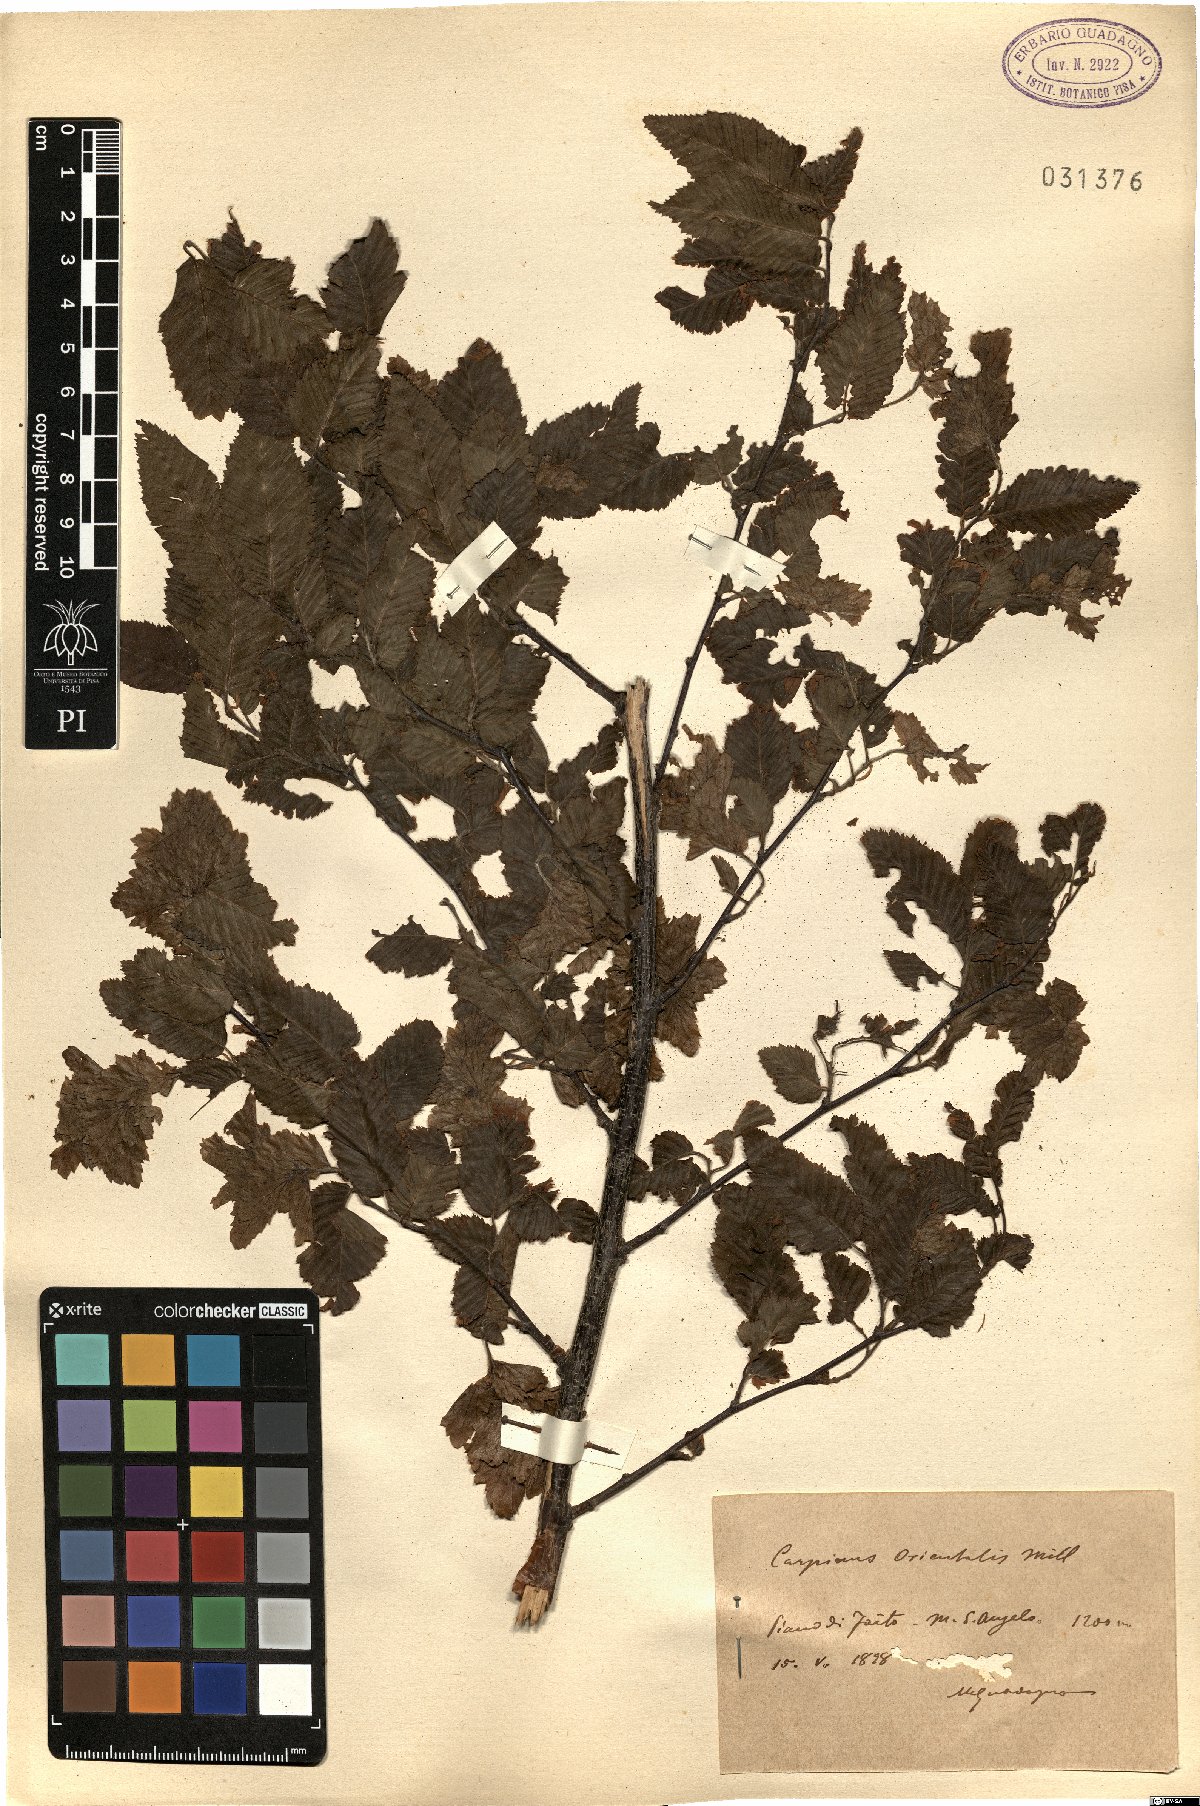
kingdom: Plantae
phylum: Tracheophyta
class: Magnoliopsida
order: Fagales
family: Betulaceae
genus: Carpinus
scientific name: Carpinus orientalis
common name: Eastern hornbeam
